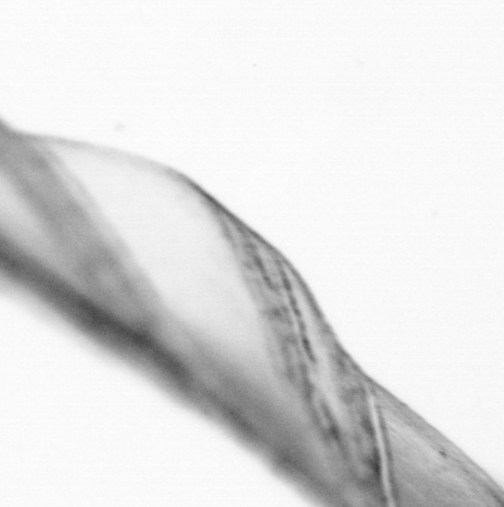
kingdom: Animalia
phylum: Chordata
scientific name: Chordata
